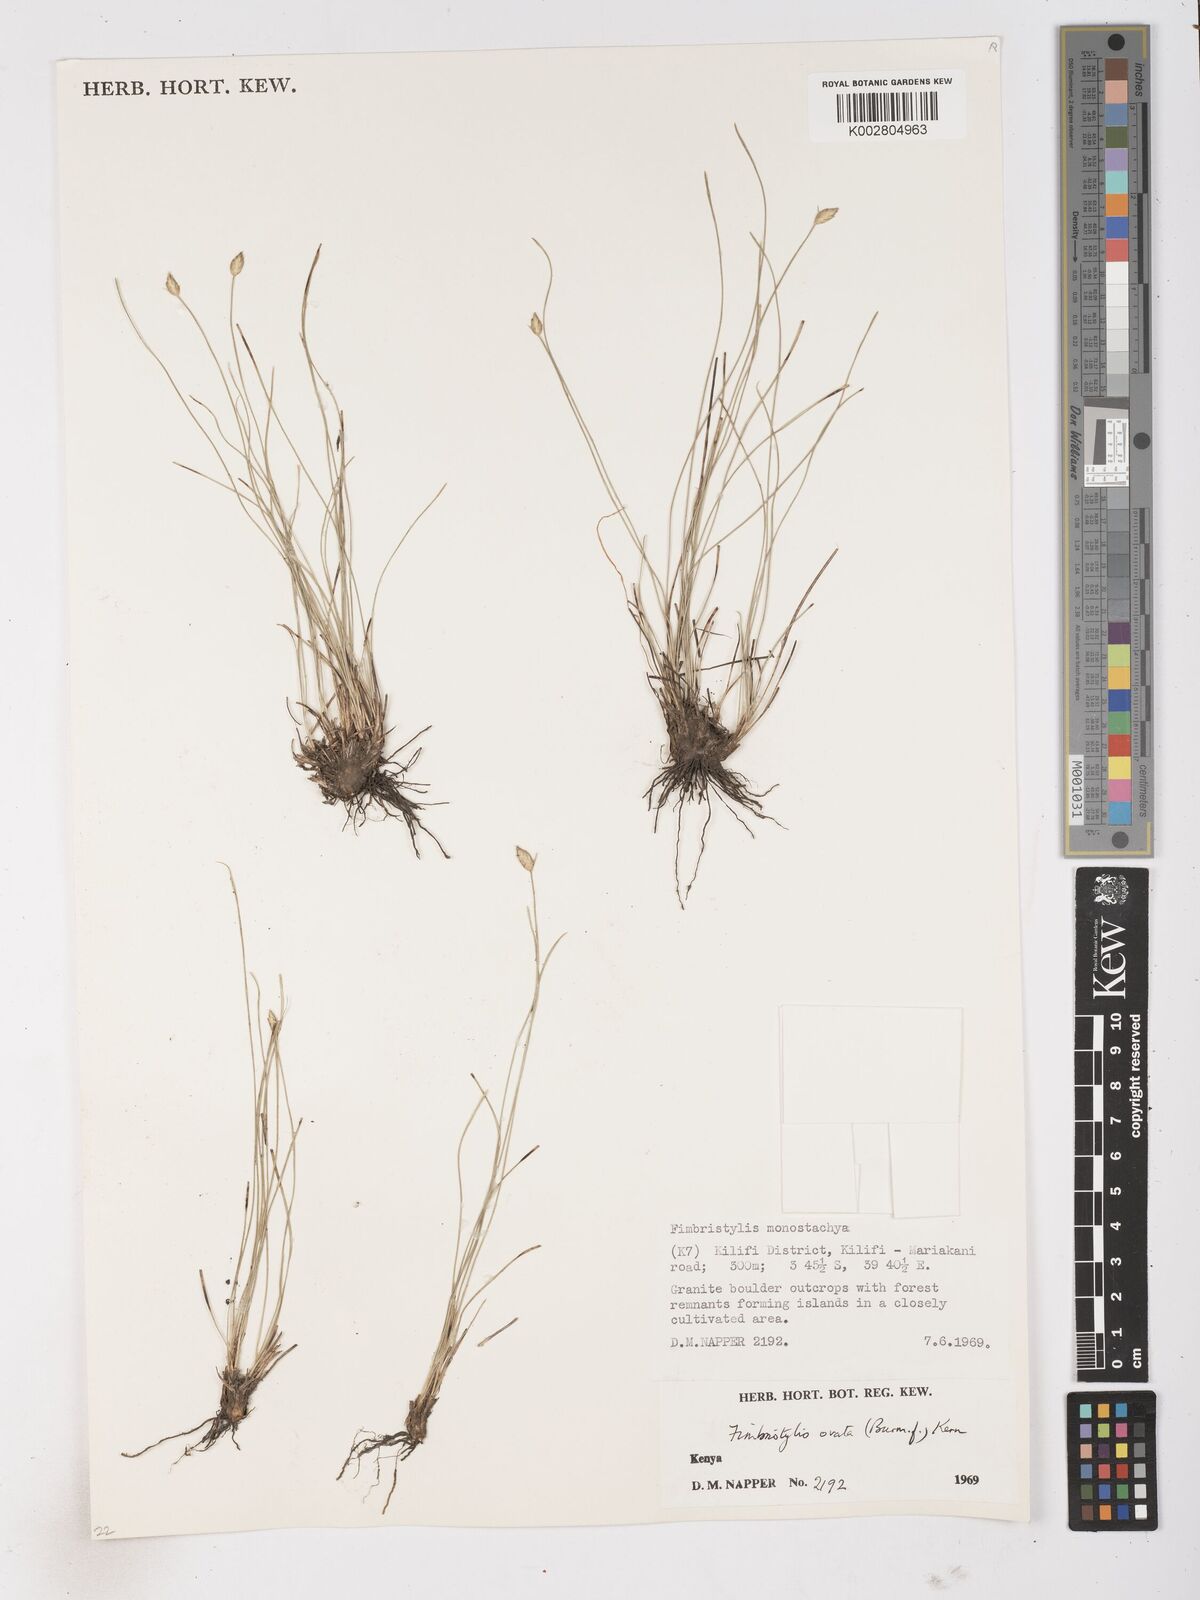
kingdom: Plantae
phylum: Tracheophyta
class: Liliopsida
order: Poales
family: Cyperaceae
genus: Abildgaardia
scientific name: Abildgaardia ovata
